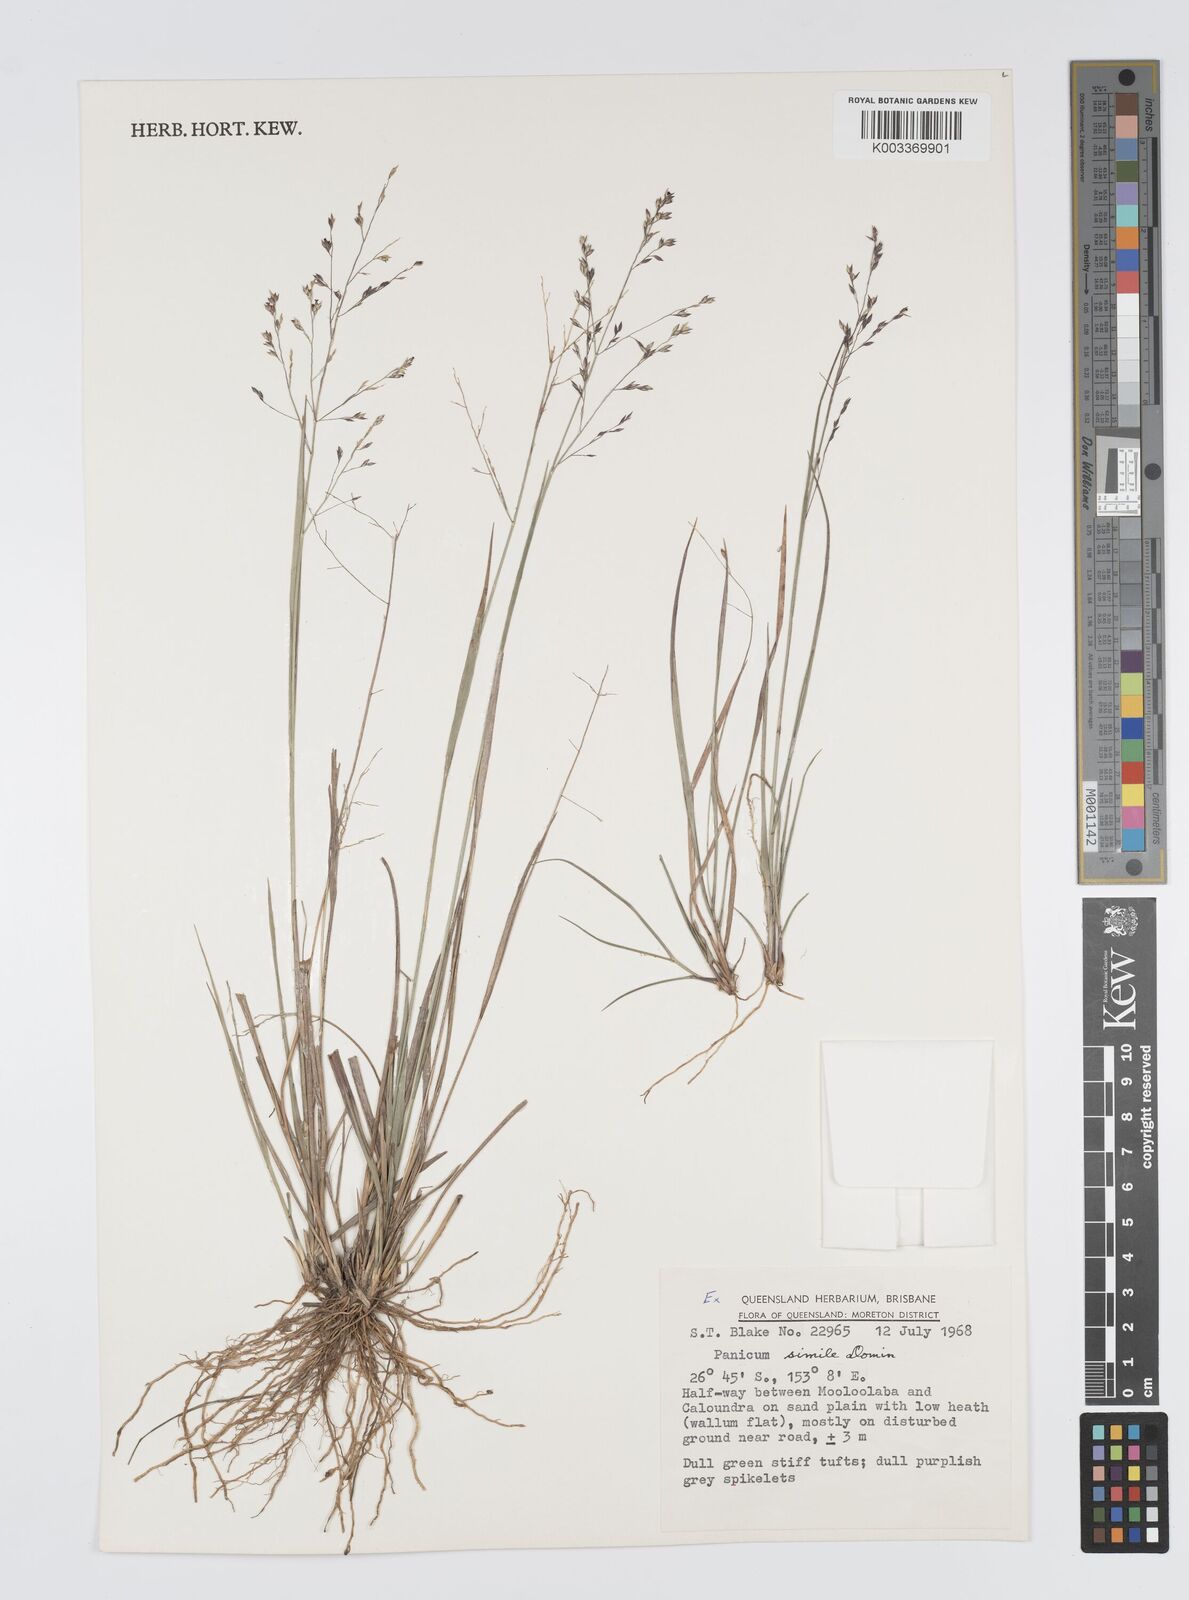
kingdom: Plantae
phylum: Tracheophyta
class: Liliopsida
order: Poales
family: Poaceae
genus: Panicum
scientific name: Panicum effusum
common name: Hairy panic grass
